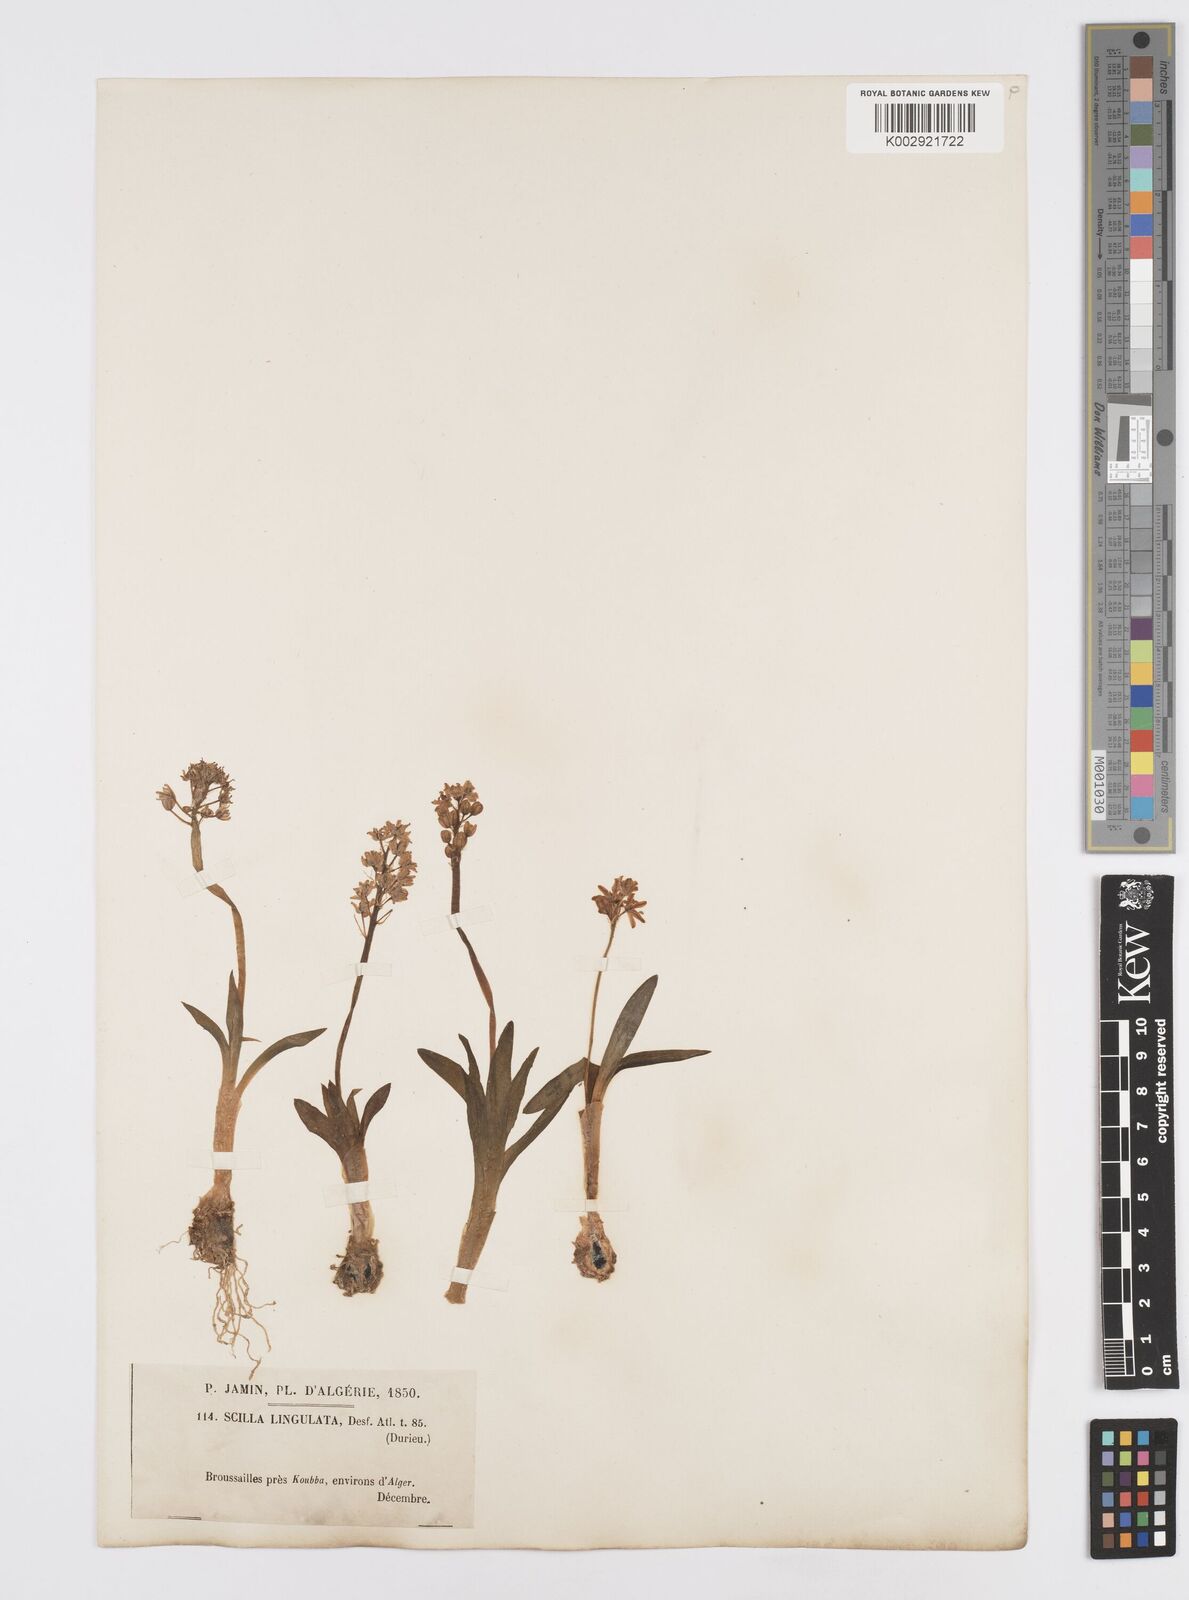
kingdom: Plantae
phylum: Tracheophyta
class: Liliopsida
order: Asparagales
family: Asparagaceae
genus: Hyacinthoides
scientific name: Hyacinthoides lingulata
